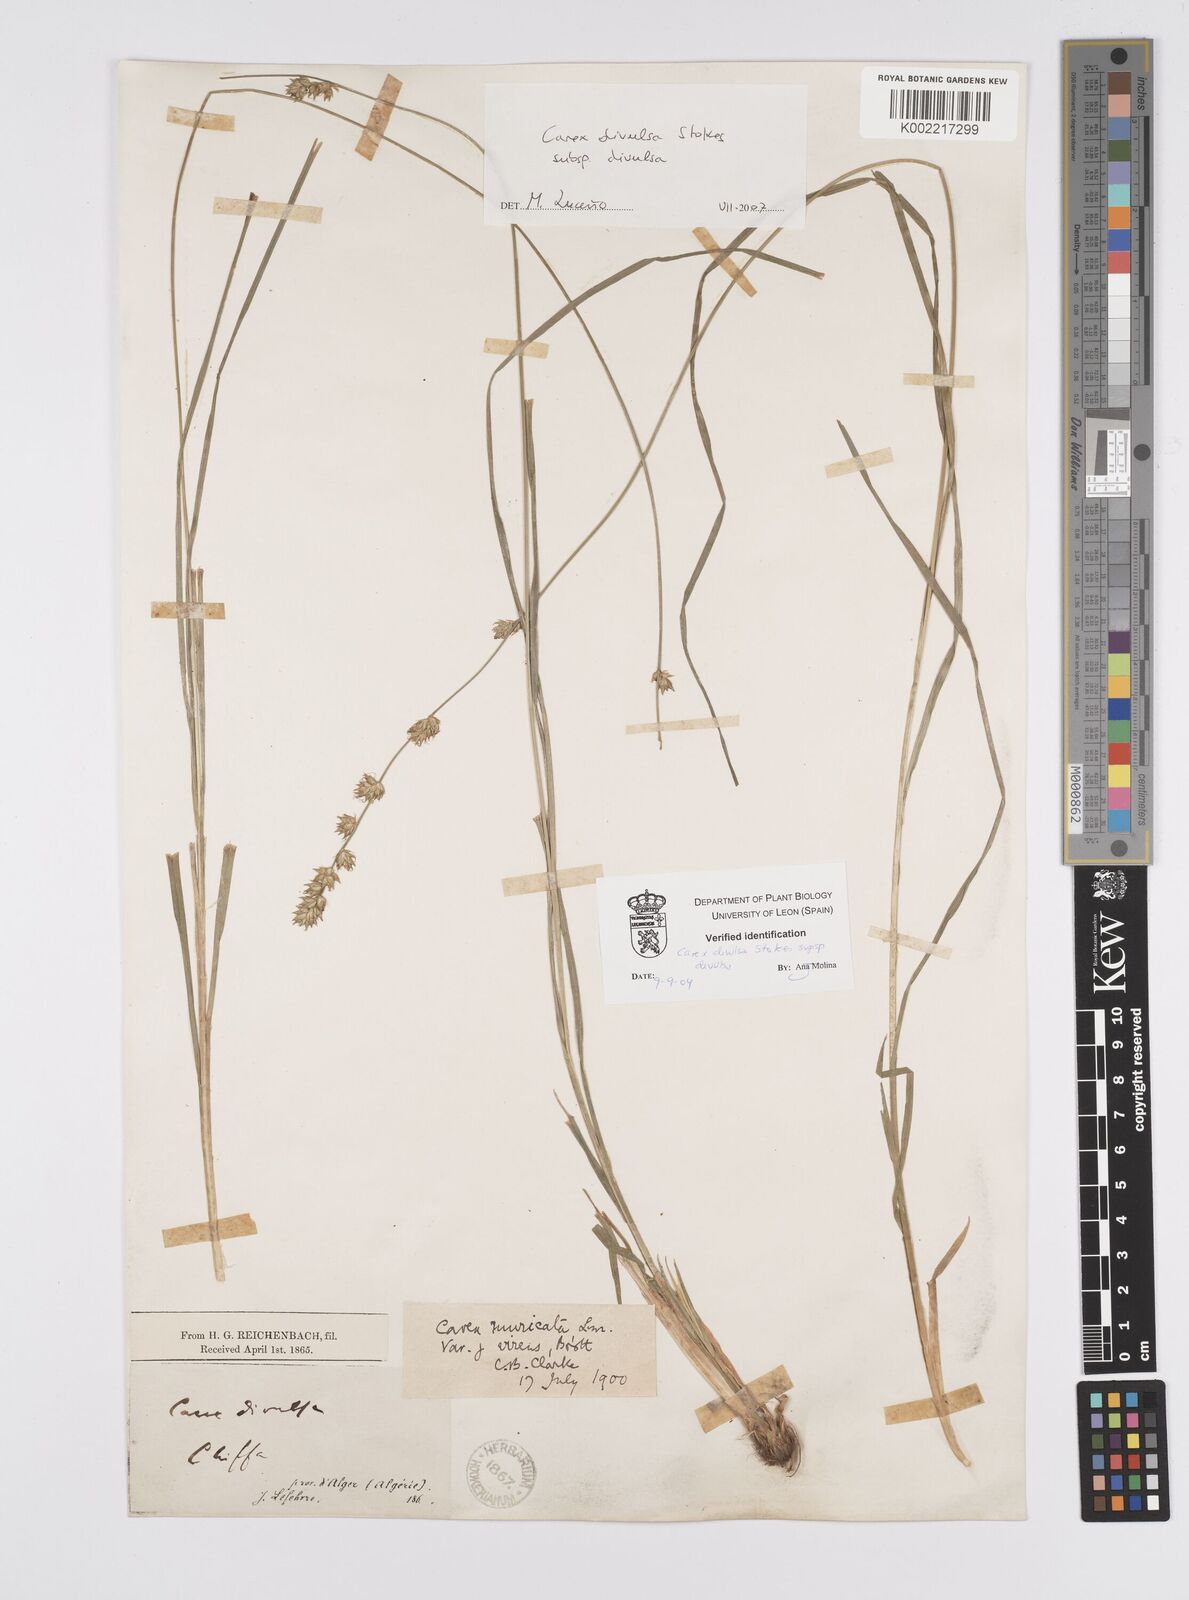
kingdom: Plantae
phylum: Tracheophyta
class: Liliopsida
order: Poales
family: Cyperaceae
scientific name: Cyperaceae
